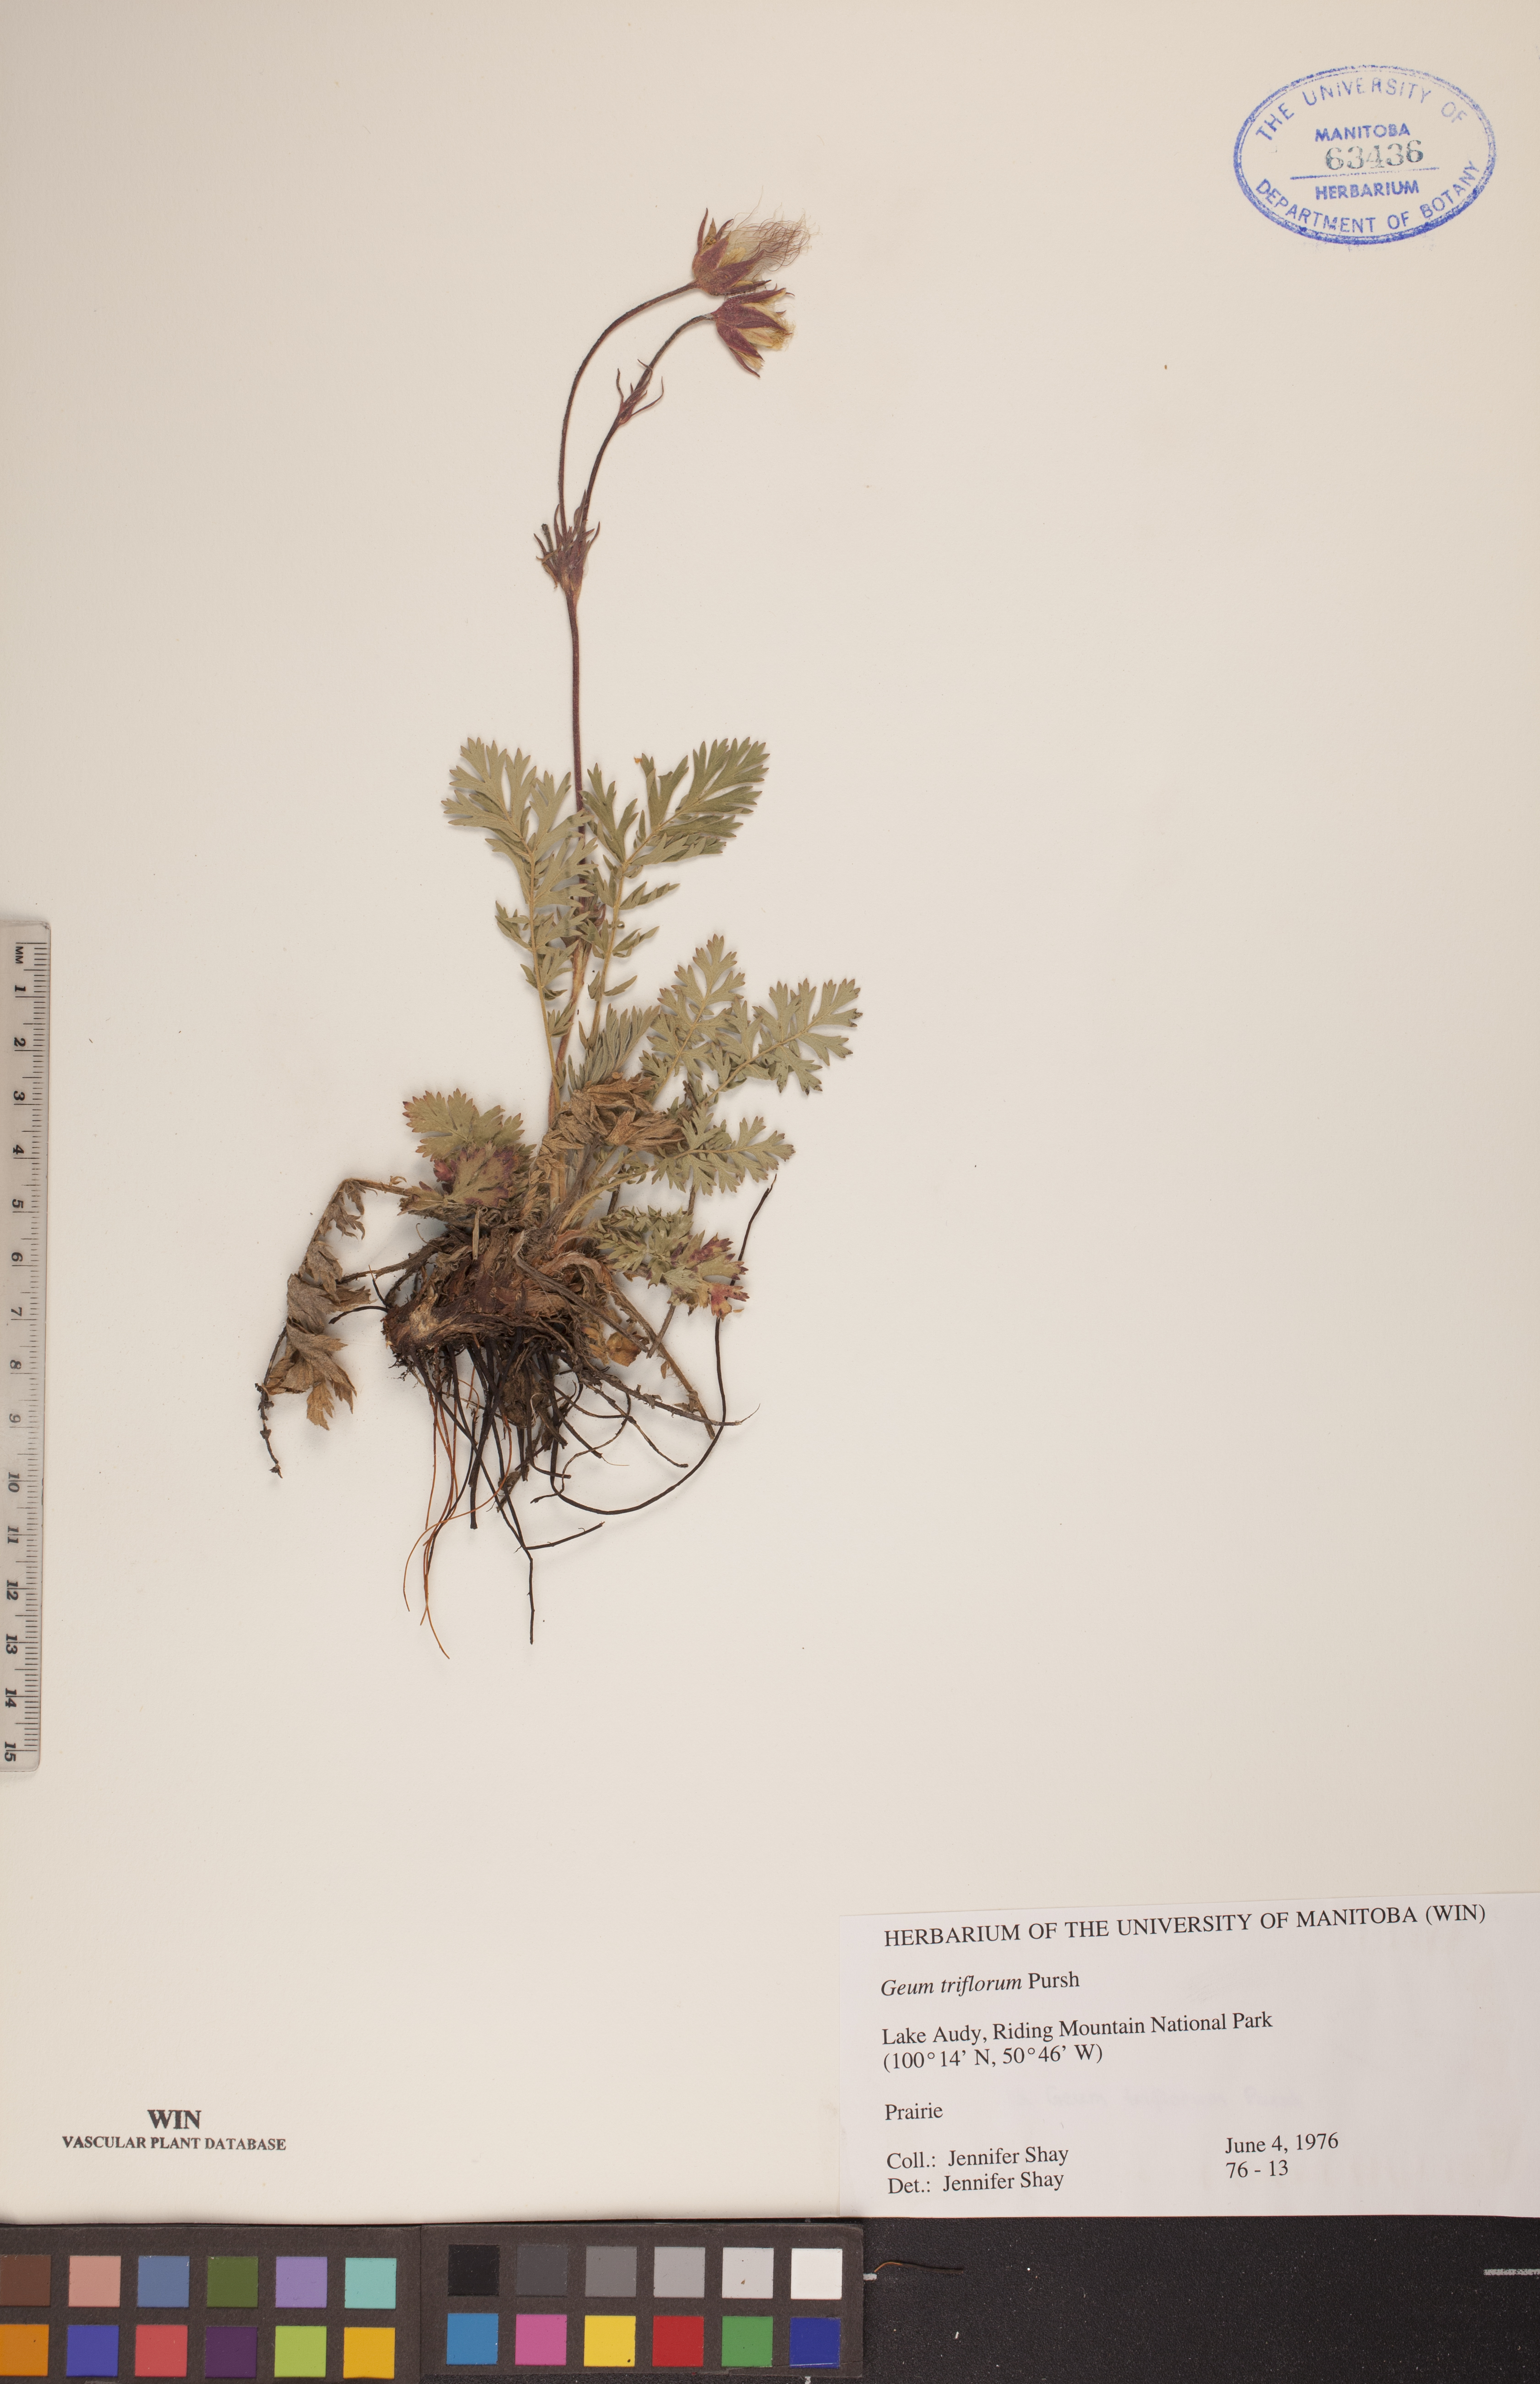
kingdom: Plantae
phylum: Tracheophyta
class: Magnoliopsida
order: Rosales
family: Rosaceae
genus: Geum
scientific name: Geum triflorum
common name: Old man's whiskers
